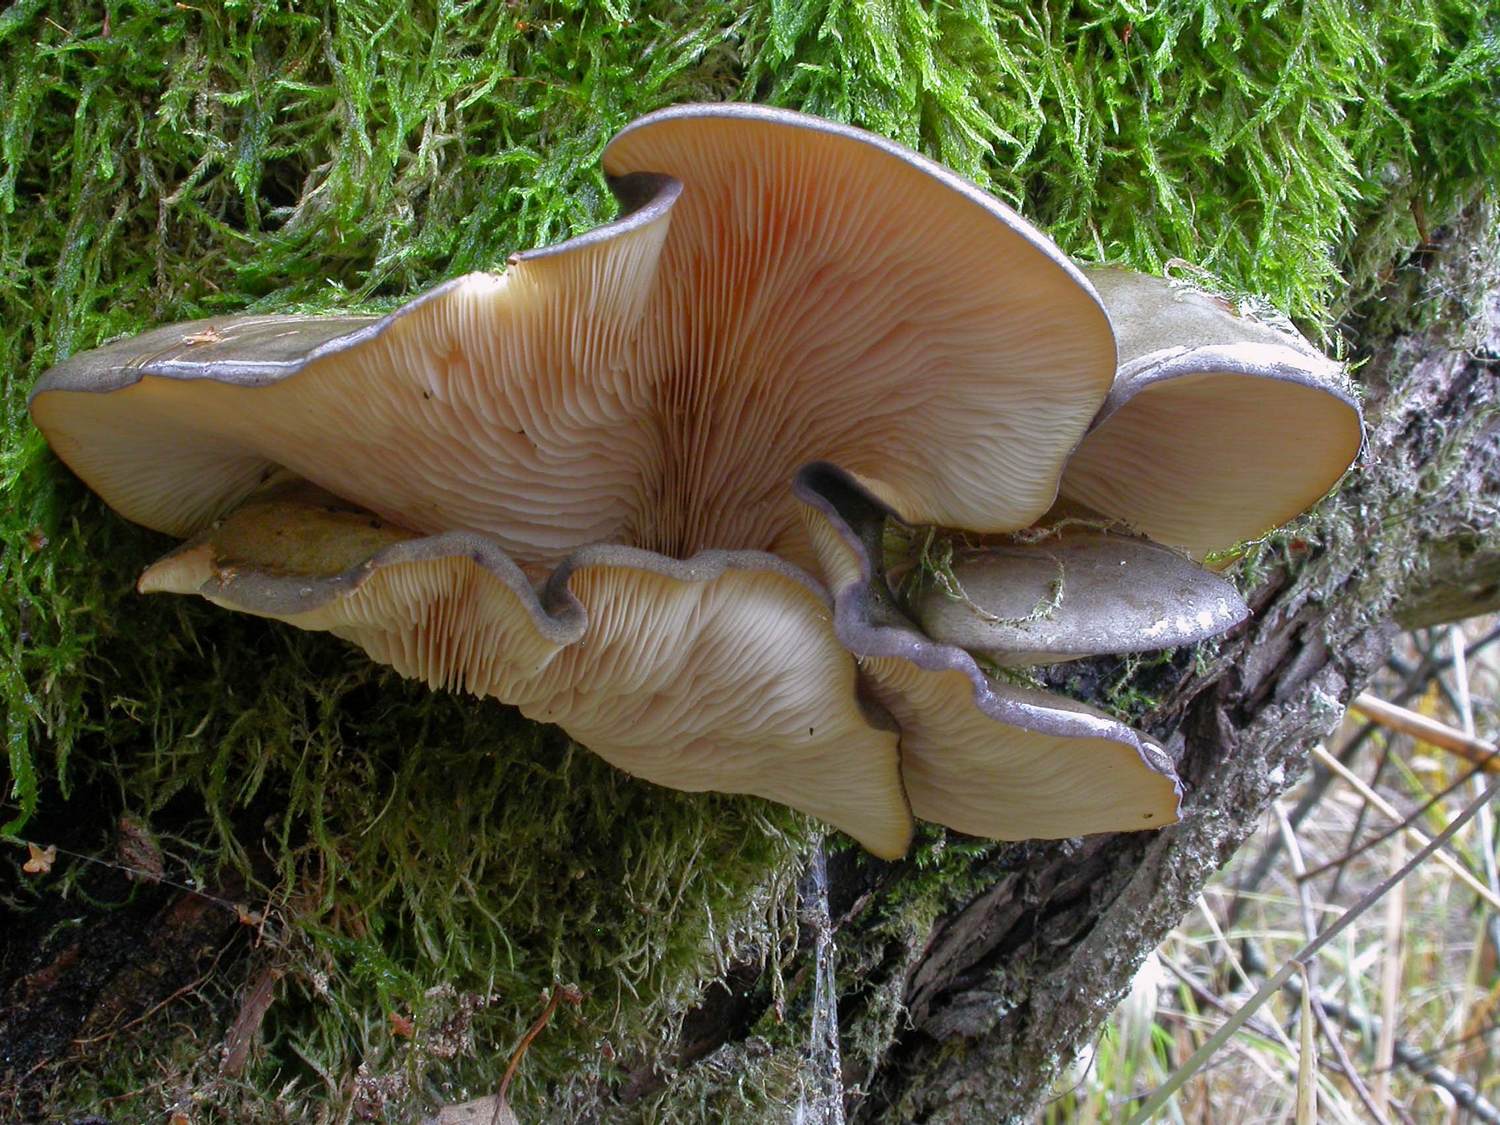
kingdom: Fungi
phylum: Basidiomycota
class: Agaricomycetes
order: Agaricales
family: Sarcomyxaceae
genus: Sarcomyxa
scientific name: Sarcomyxa serotina
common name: gummihat
